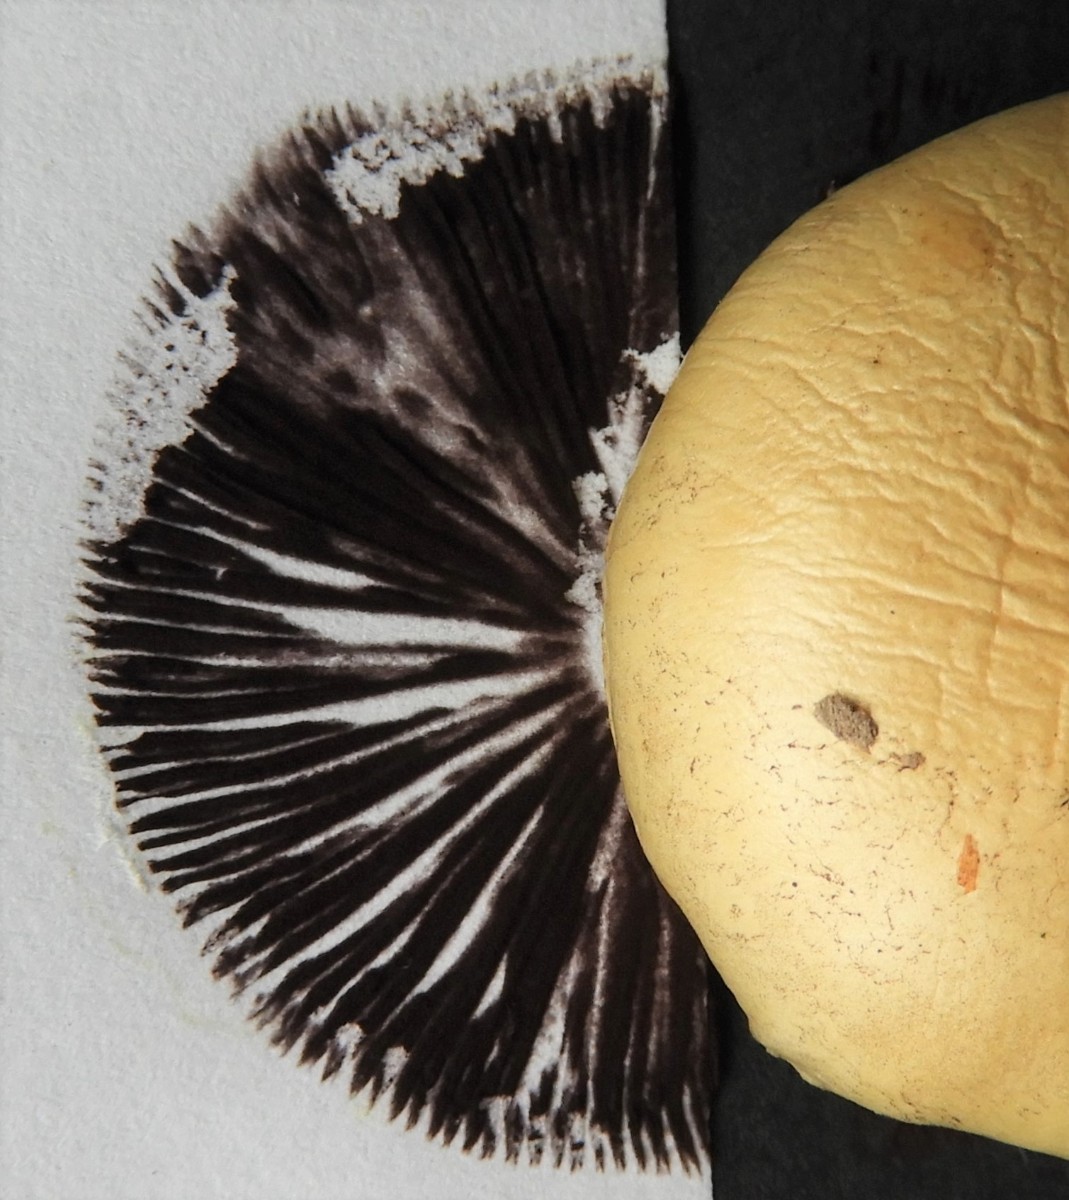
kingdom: Fungi
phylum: Basidiomycota
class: Agaricomycetes
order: Agaricales
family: Strophariaceae
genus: Protostropharia
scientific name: Protostropharia semiglobata
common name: halvkugleformet bredblad
